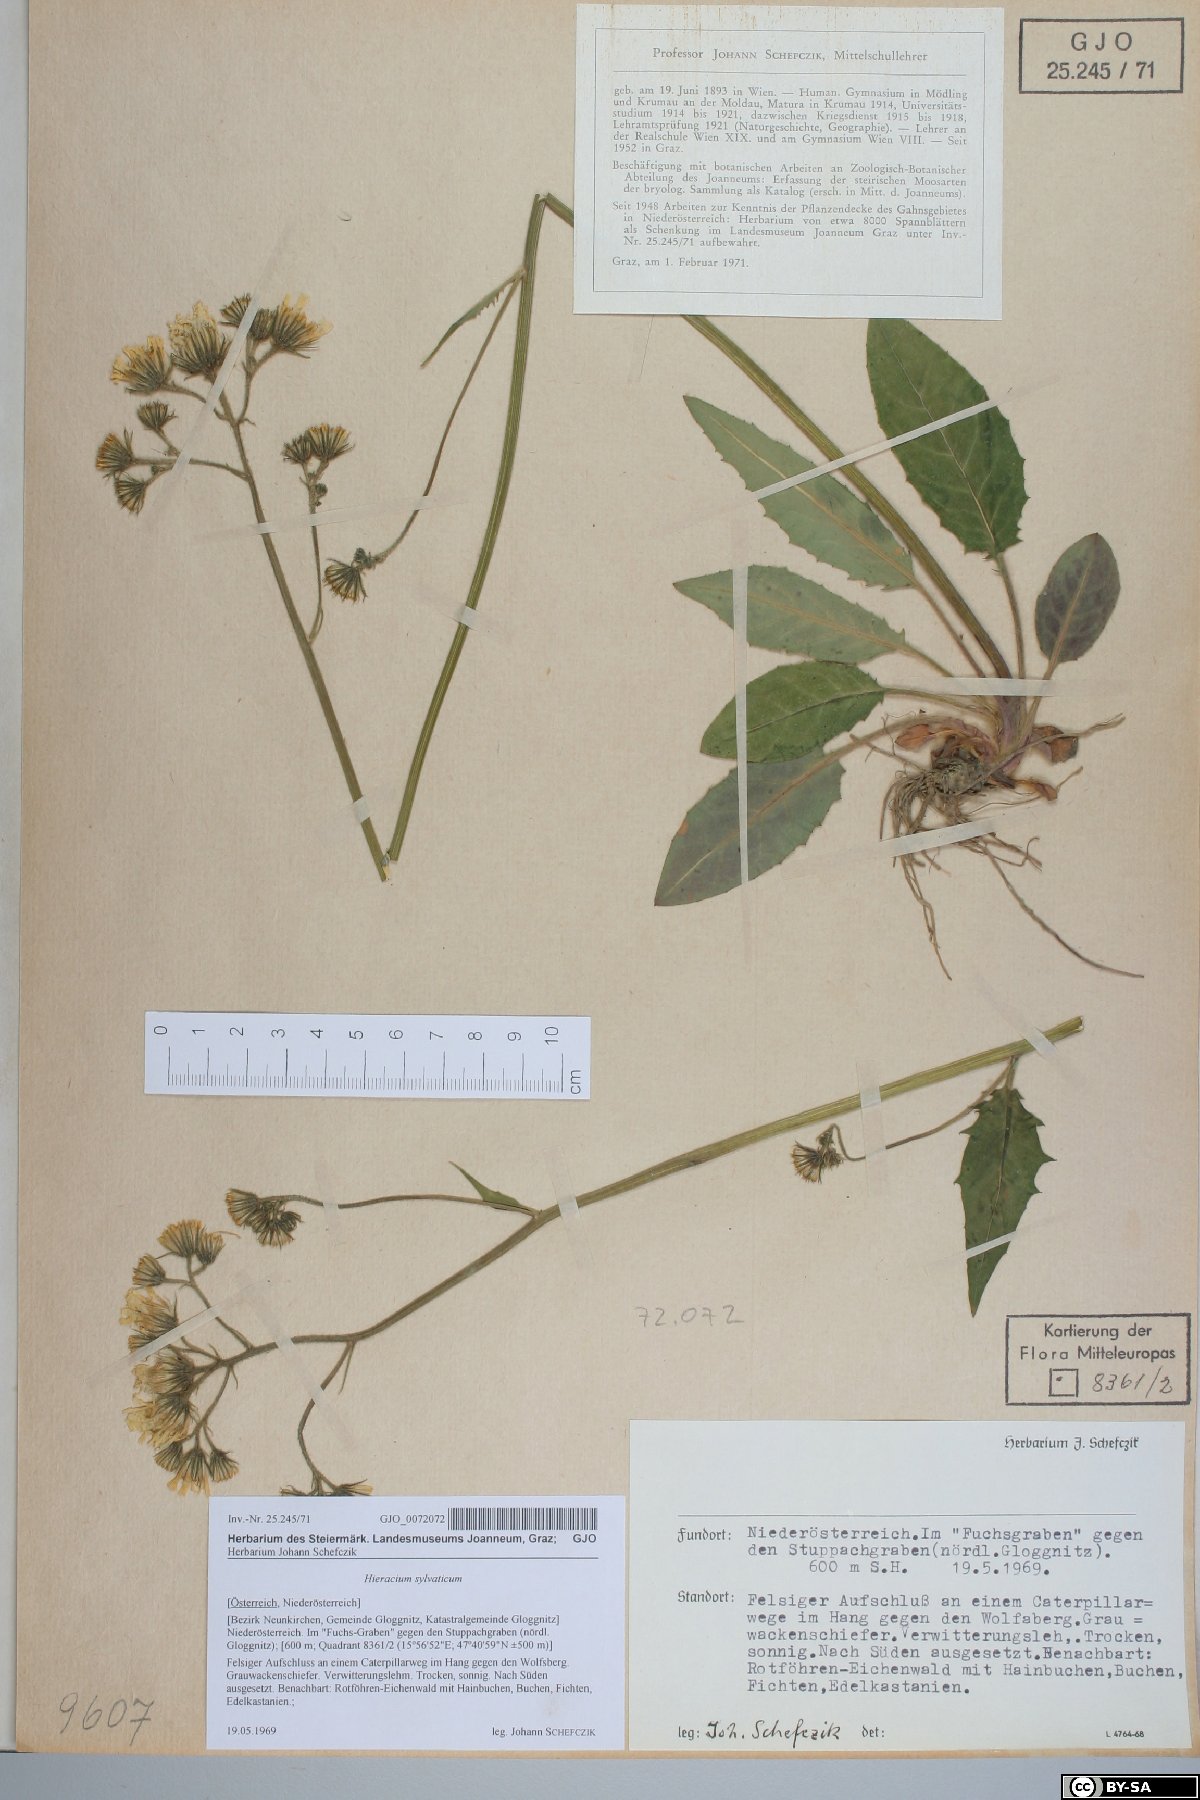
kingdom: Plantae
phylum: Tracheophyta
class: Magnoliopsida
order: Asterales
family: Asteraceae
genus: Hieracium
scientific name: Hieracium murorum
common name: Wall hawkweed
